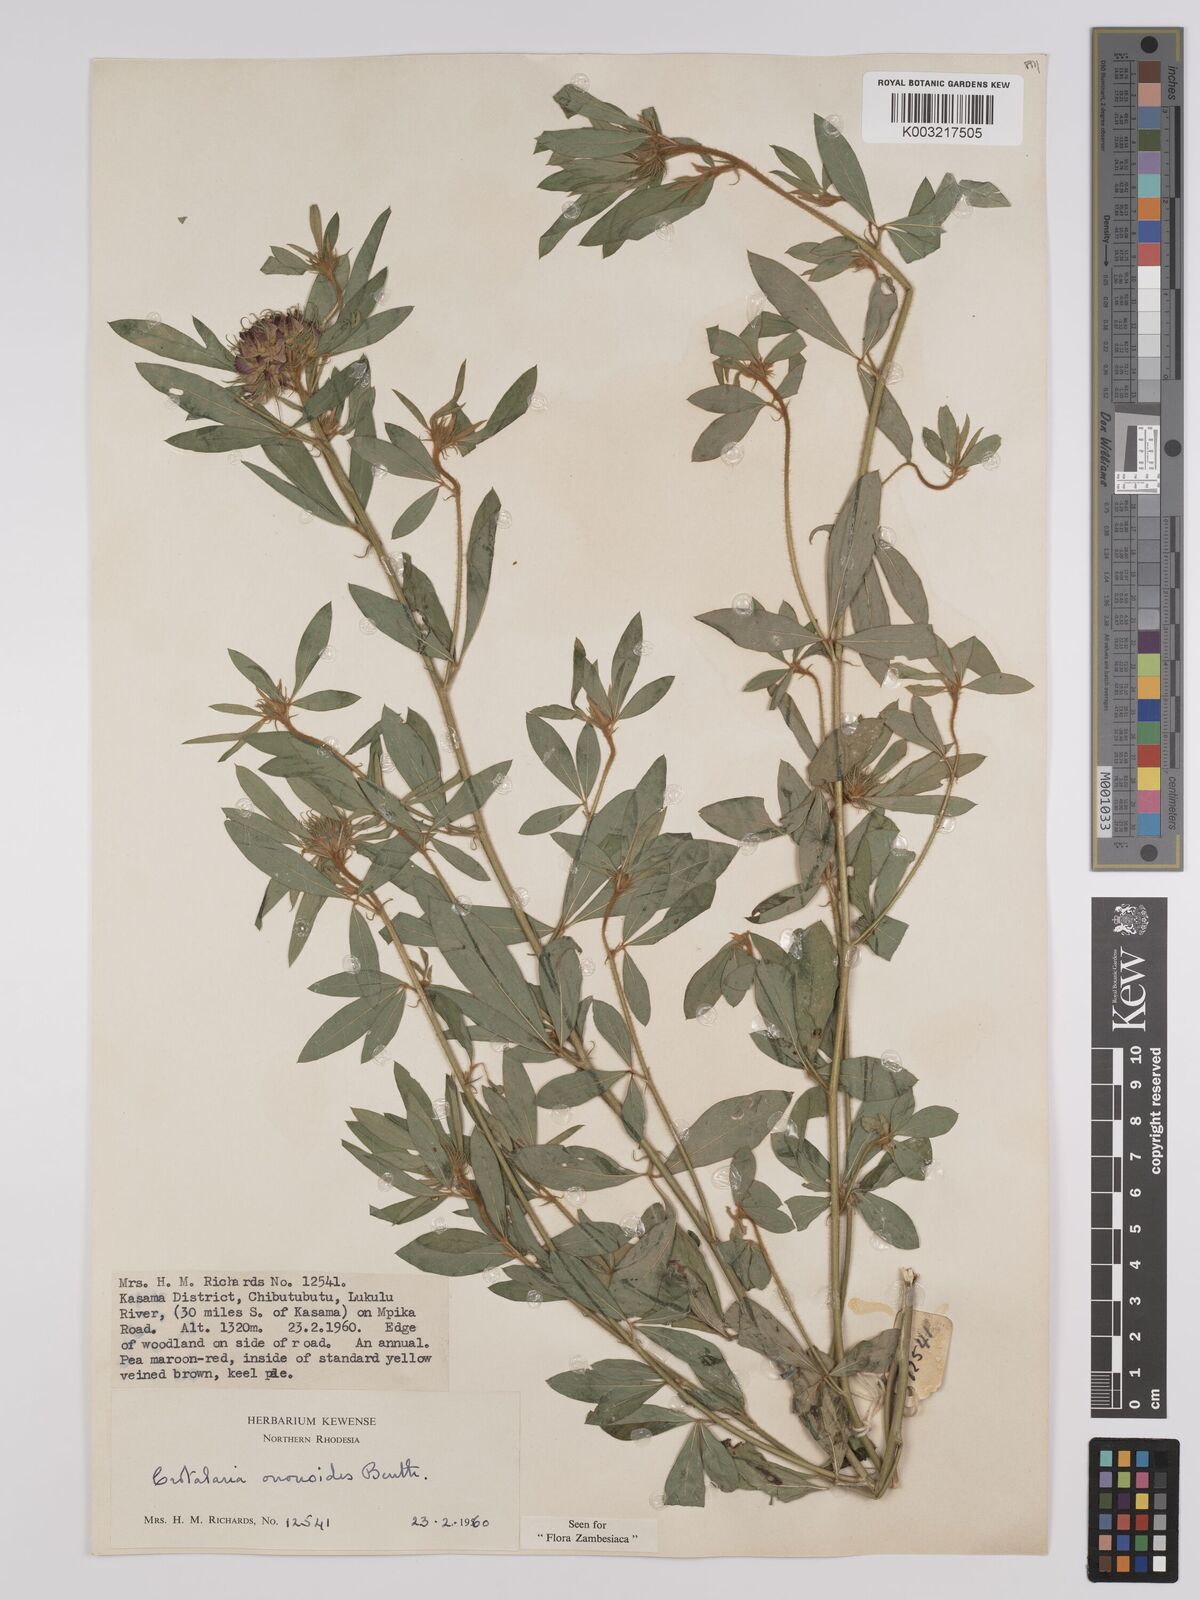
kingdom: Plantae
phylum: Tracheophyta
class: Magnoliopsida
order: Fabales
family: Fabaceae
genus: Crotalaria
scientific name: Crotalaria ononoides
